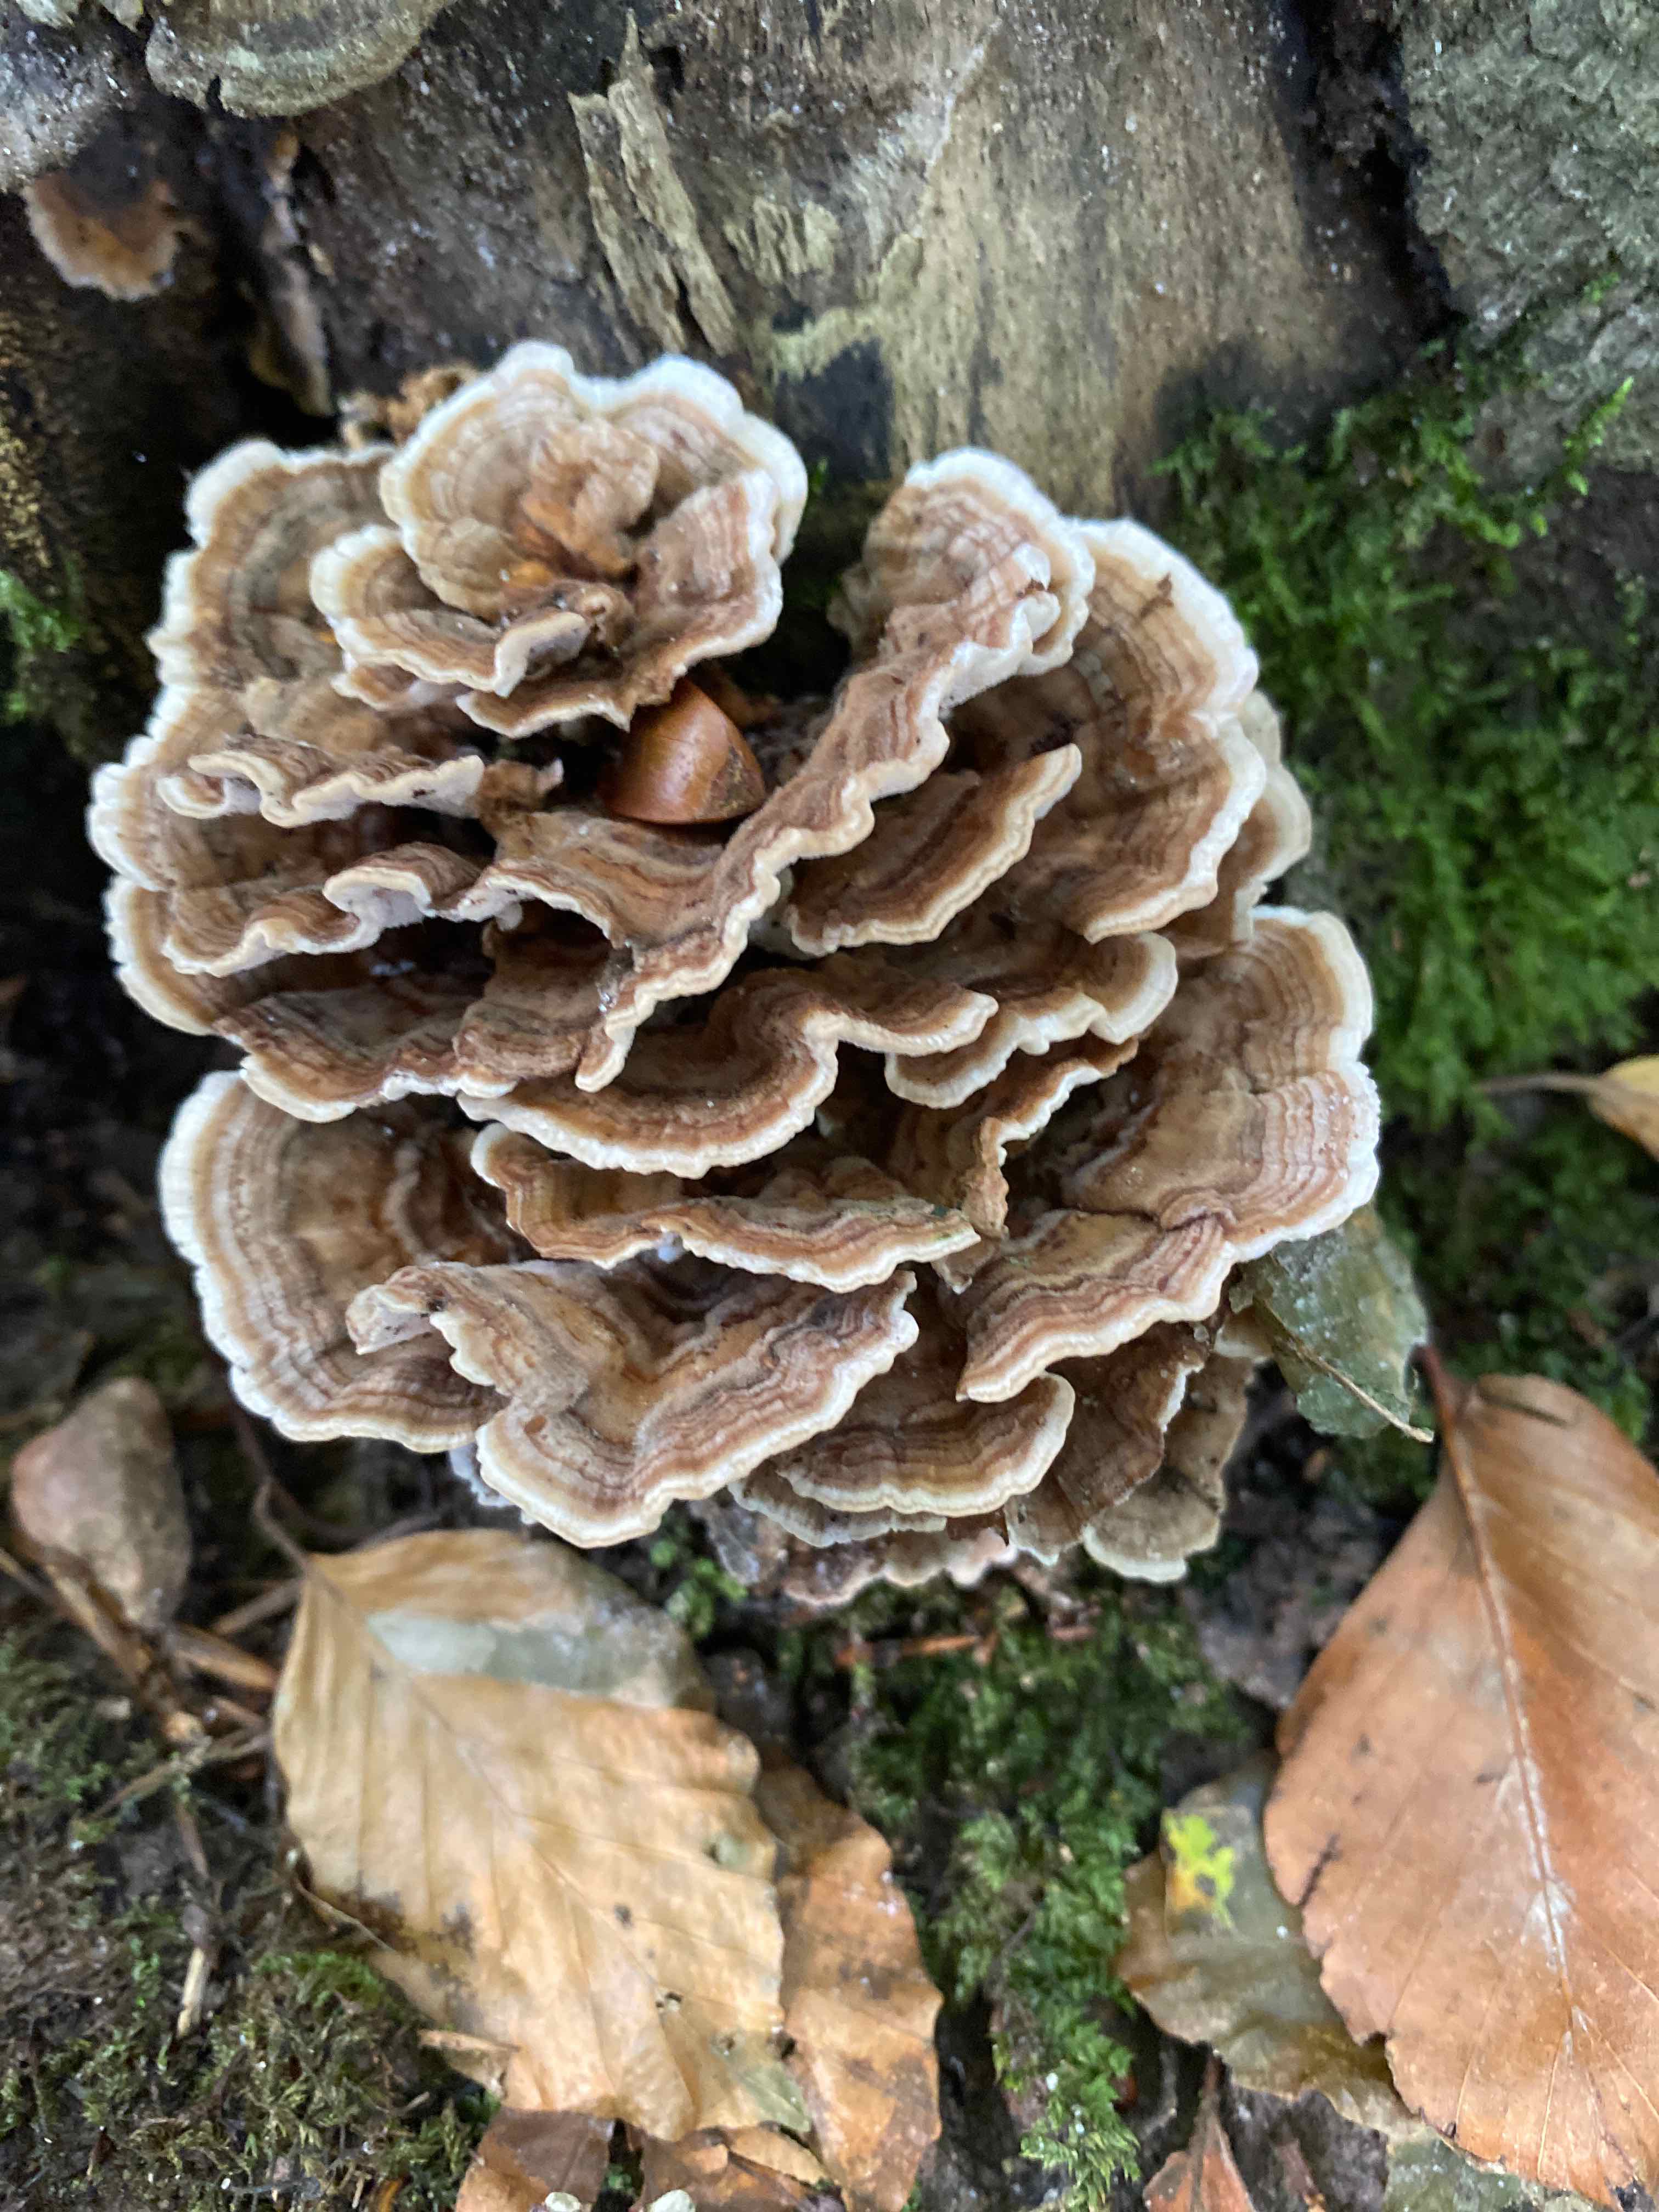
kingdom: Fungi
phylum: Basidiomycota
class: Agaricomycetes
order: Polyporales
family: Polyporaceae
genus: Trametes
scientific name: Trametes versicolor
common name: broget læderporesvamp
